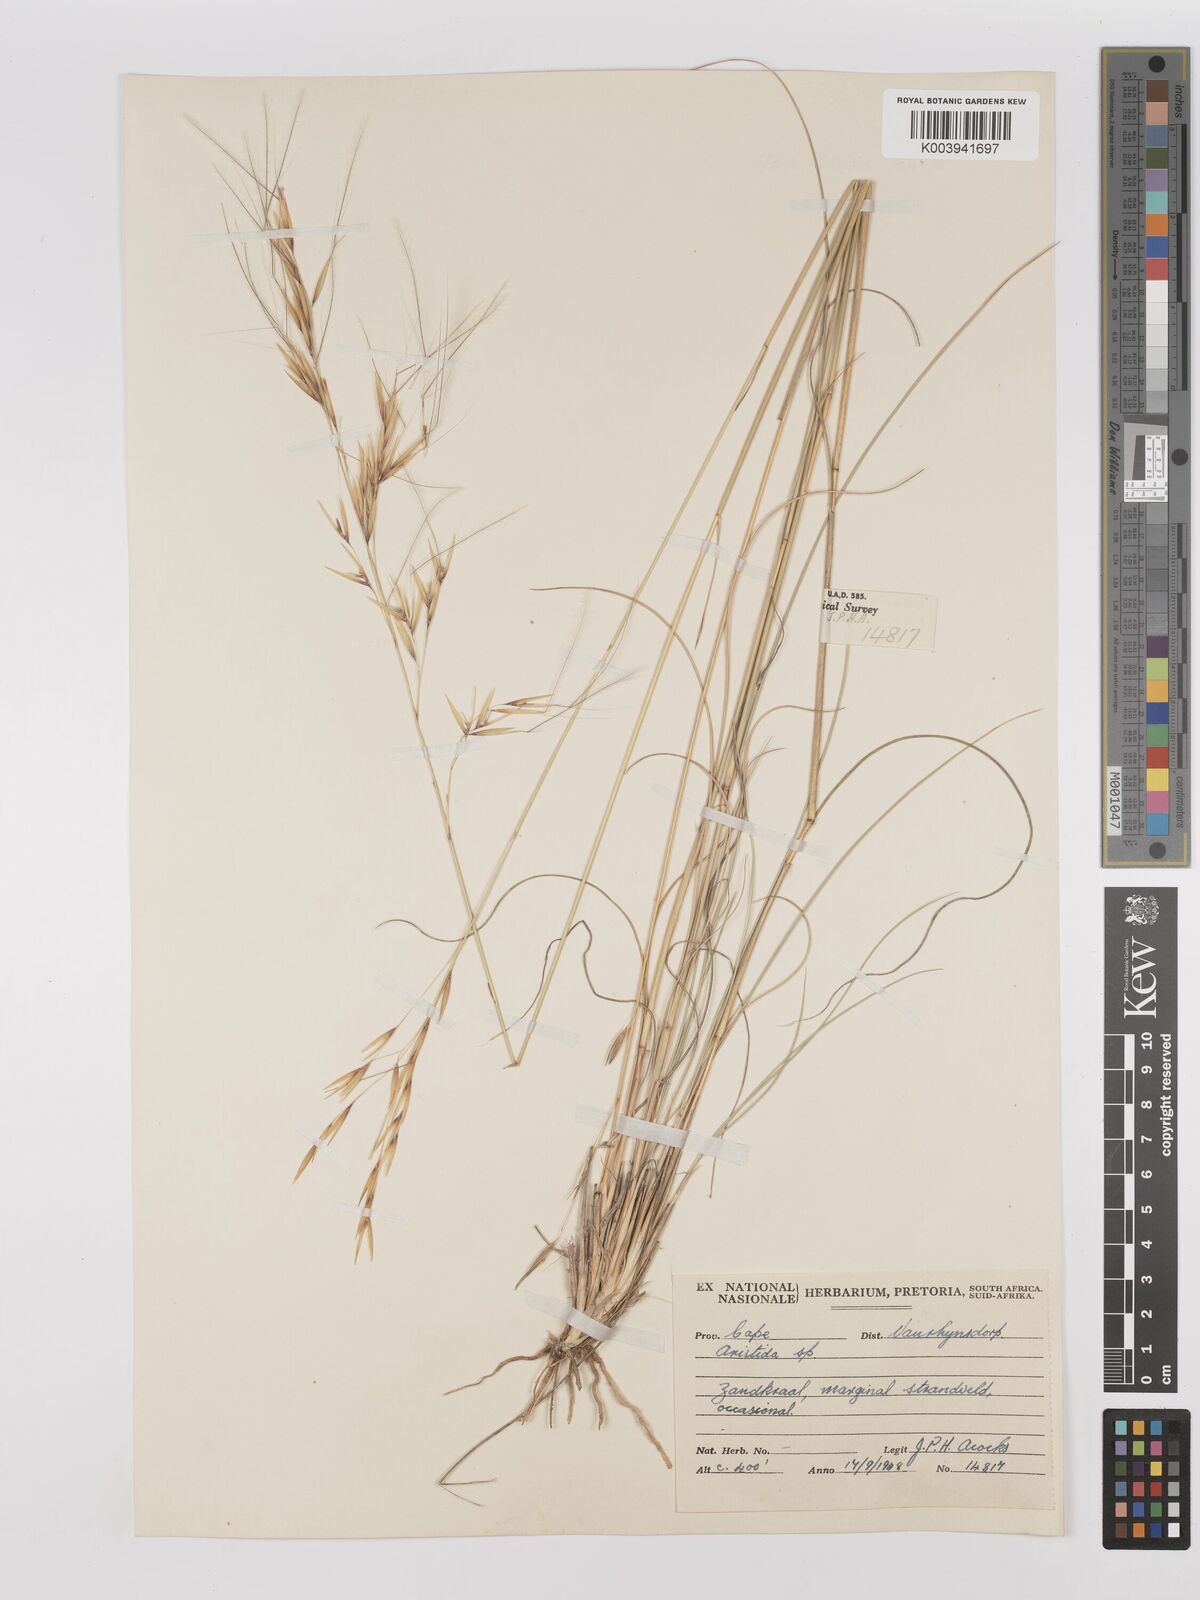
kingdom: Plantae
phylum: Tracheophyta
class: Liliopsida
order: Poales
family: Poaceae
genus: Stipagrostis
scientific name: Stipagrostis ciliata
